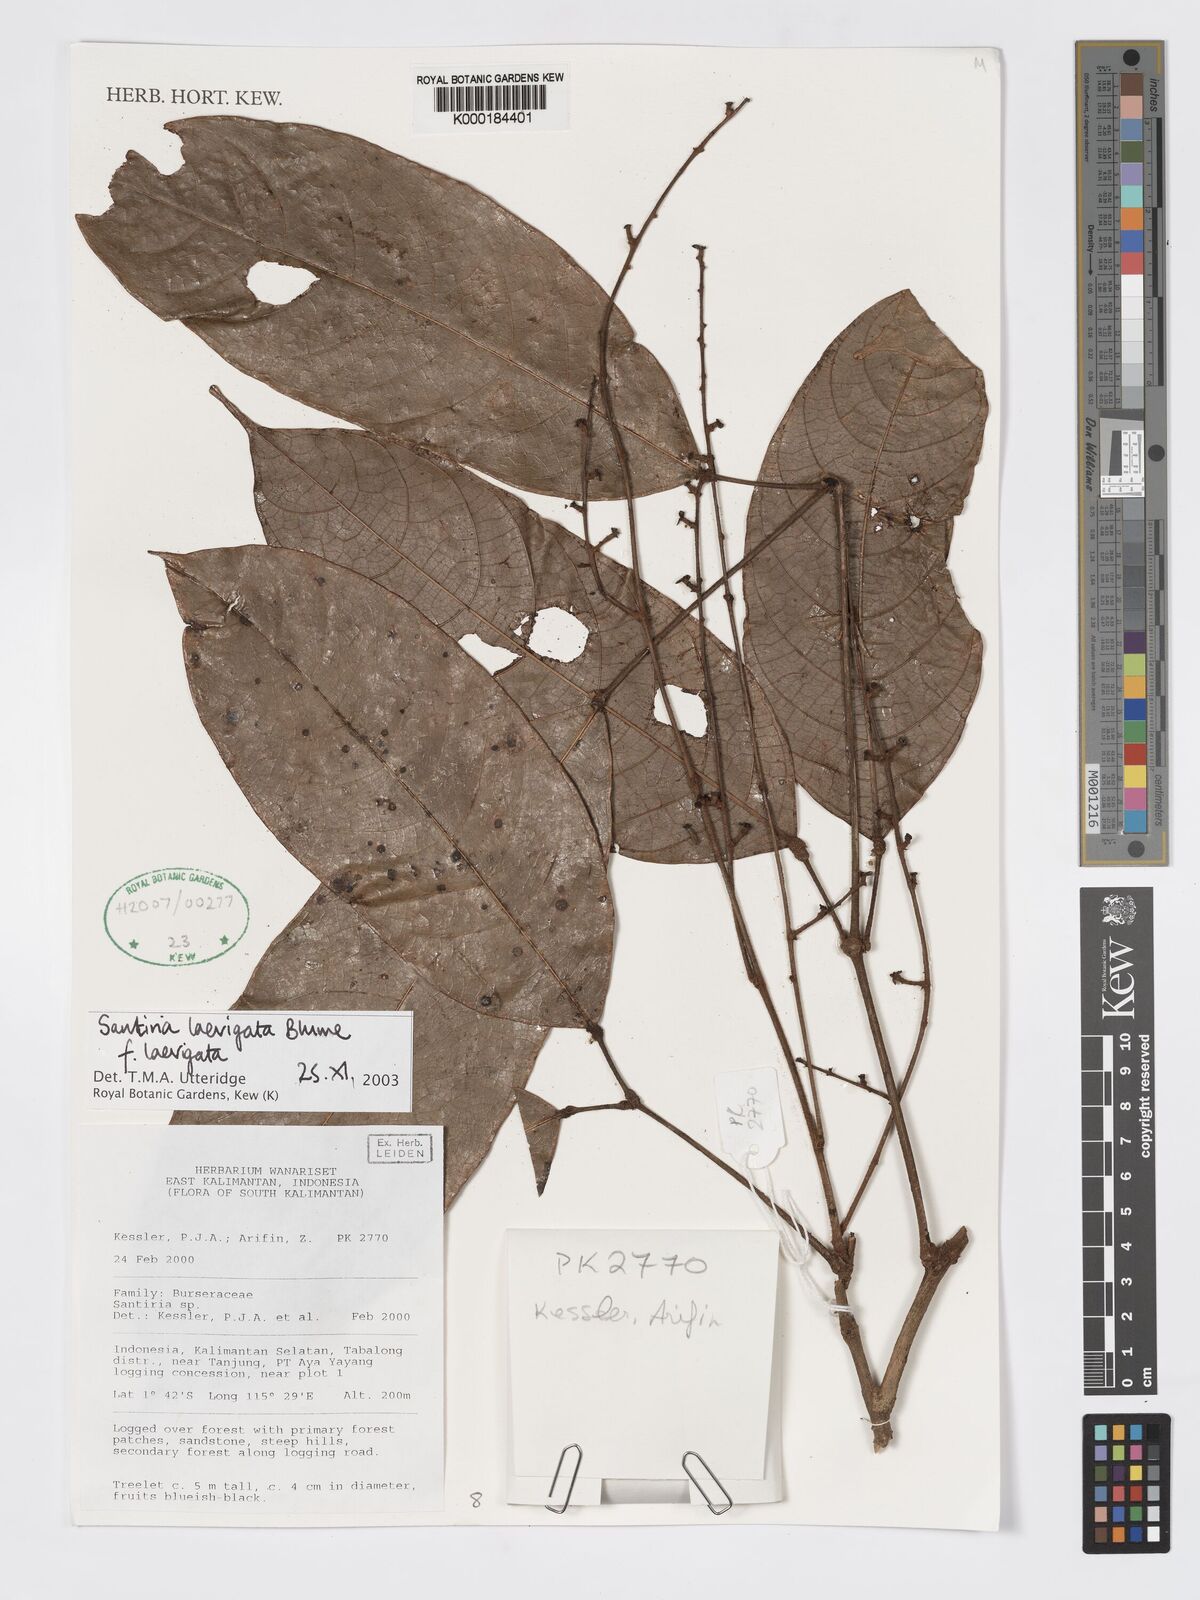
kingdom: Plantae
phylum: Tracheophyta
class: Magnoliopsida
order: Sapindales
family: Burseraceae
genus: Santiria
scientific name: Santiria laevigata
